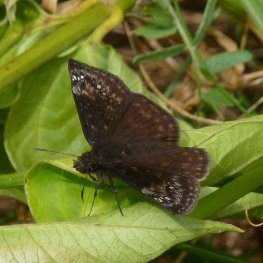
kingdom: Animalia
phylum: Arthropoda
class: Insecta
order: Lepidoptera
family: Hesperiidae
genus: Gesta
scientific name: Gesta
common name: Wild Indigo Duskywing
